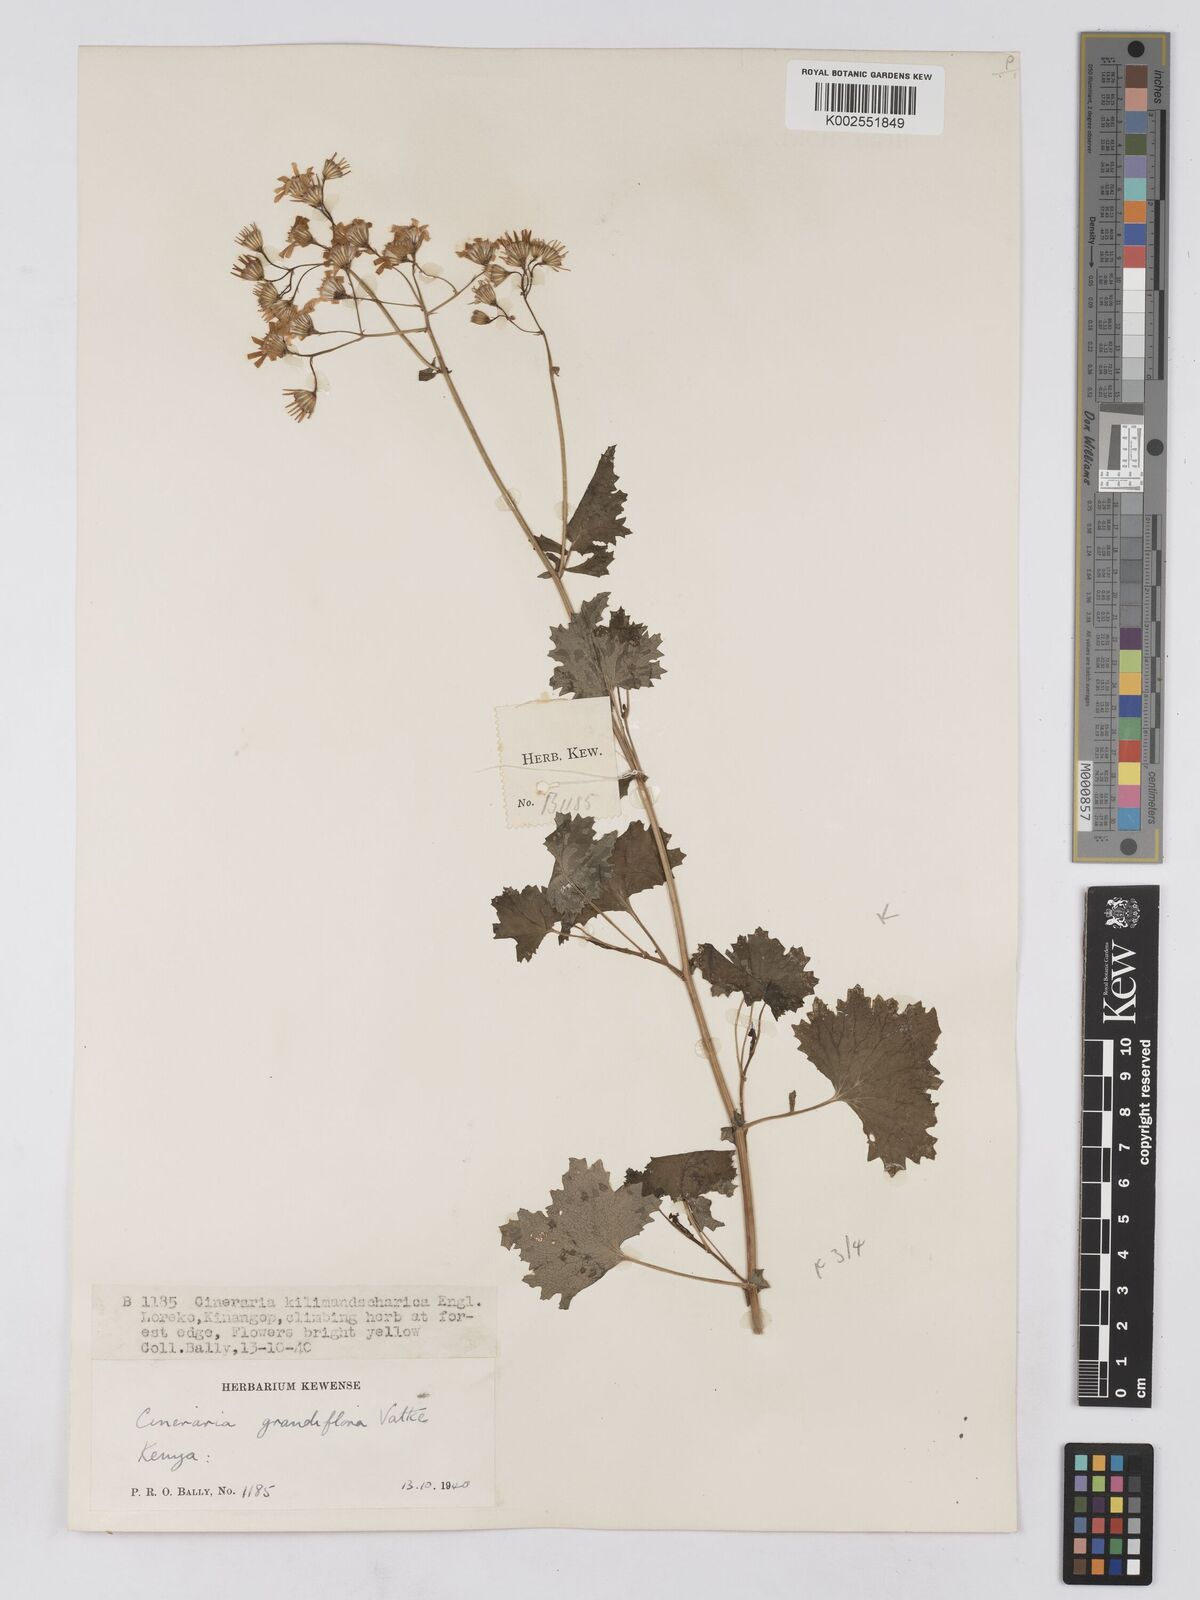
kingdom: Plantae
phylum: Tracheophyta
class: Magnoliopsida
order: Asterales
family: Asteraceae
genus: Cineraria
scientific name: Cineraria deltoidea
